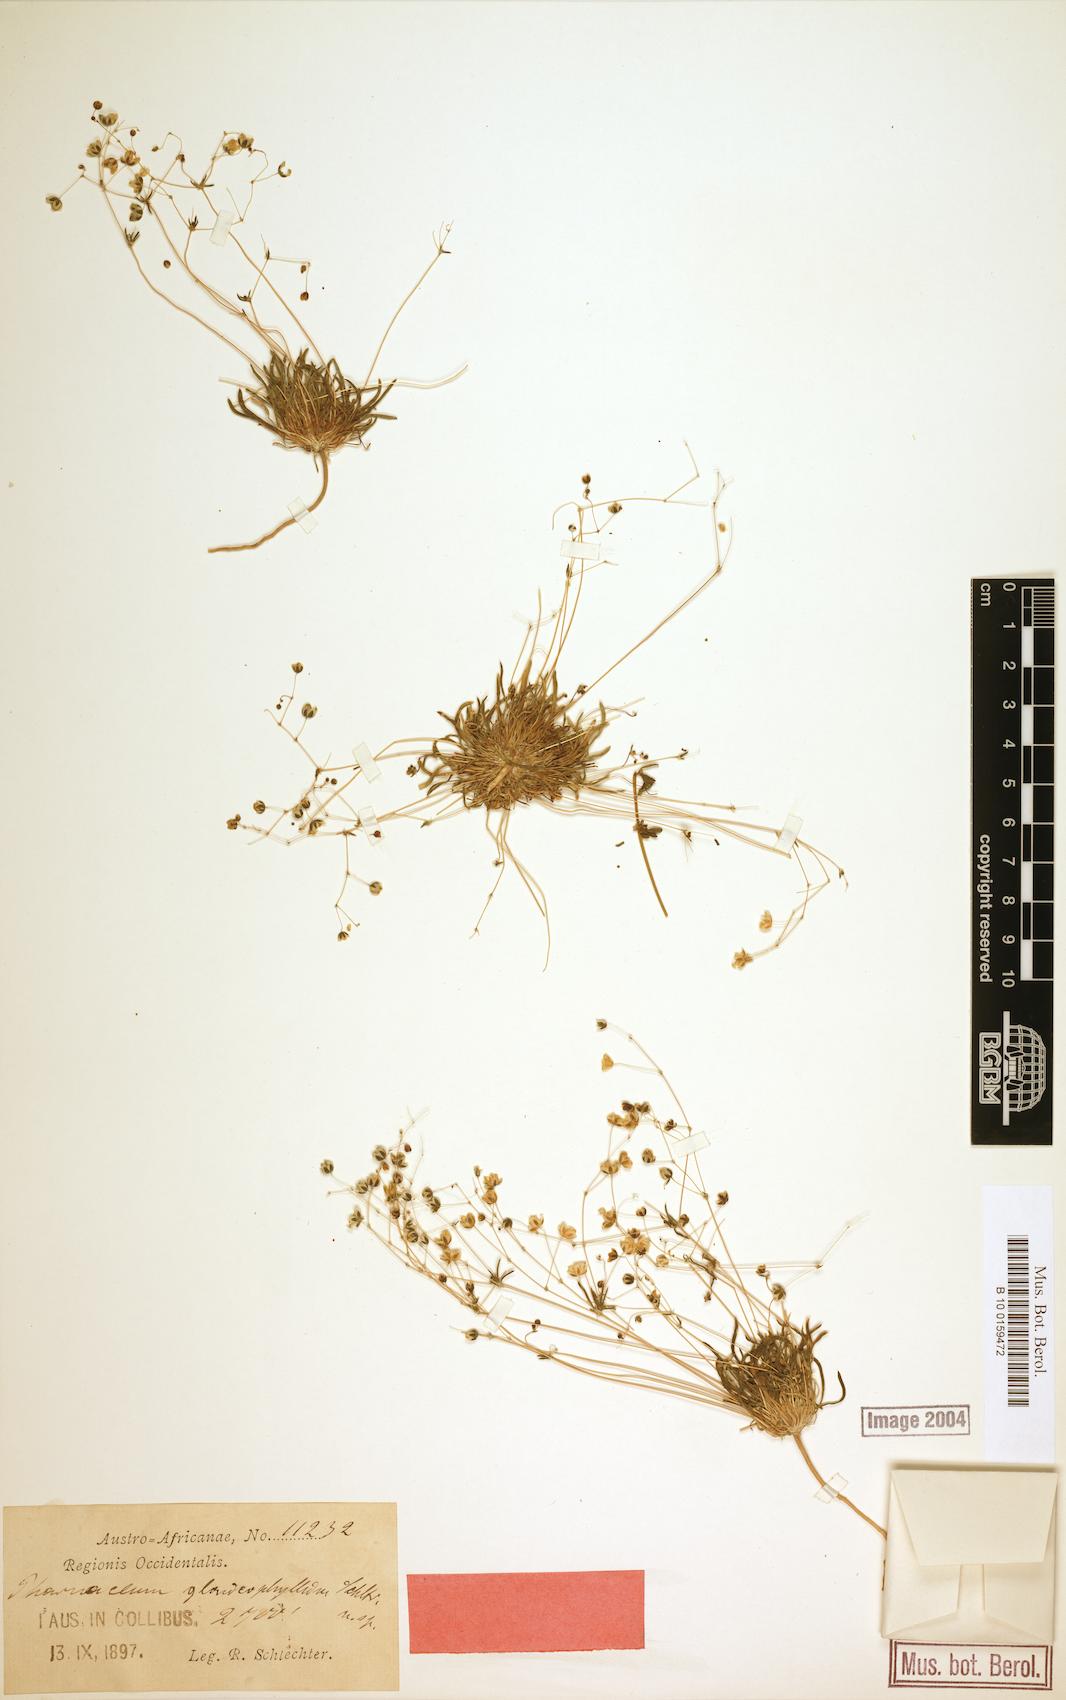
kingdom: Plantae
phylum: Tracheophyta
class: Magnoliopsida
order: Caryophyllales
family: Molluginaceae
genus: Pharnaceum
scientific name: Pharnaceum
